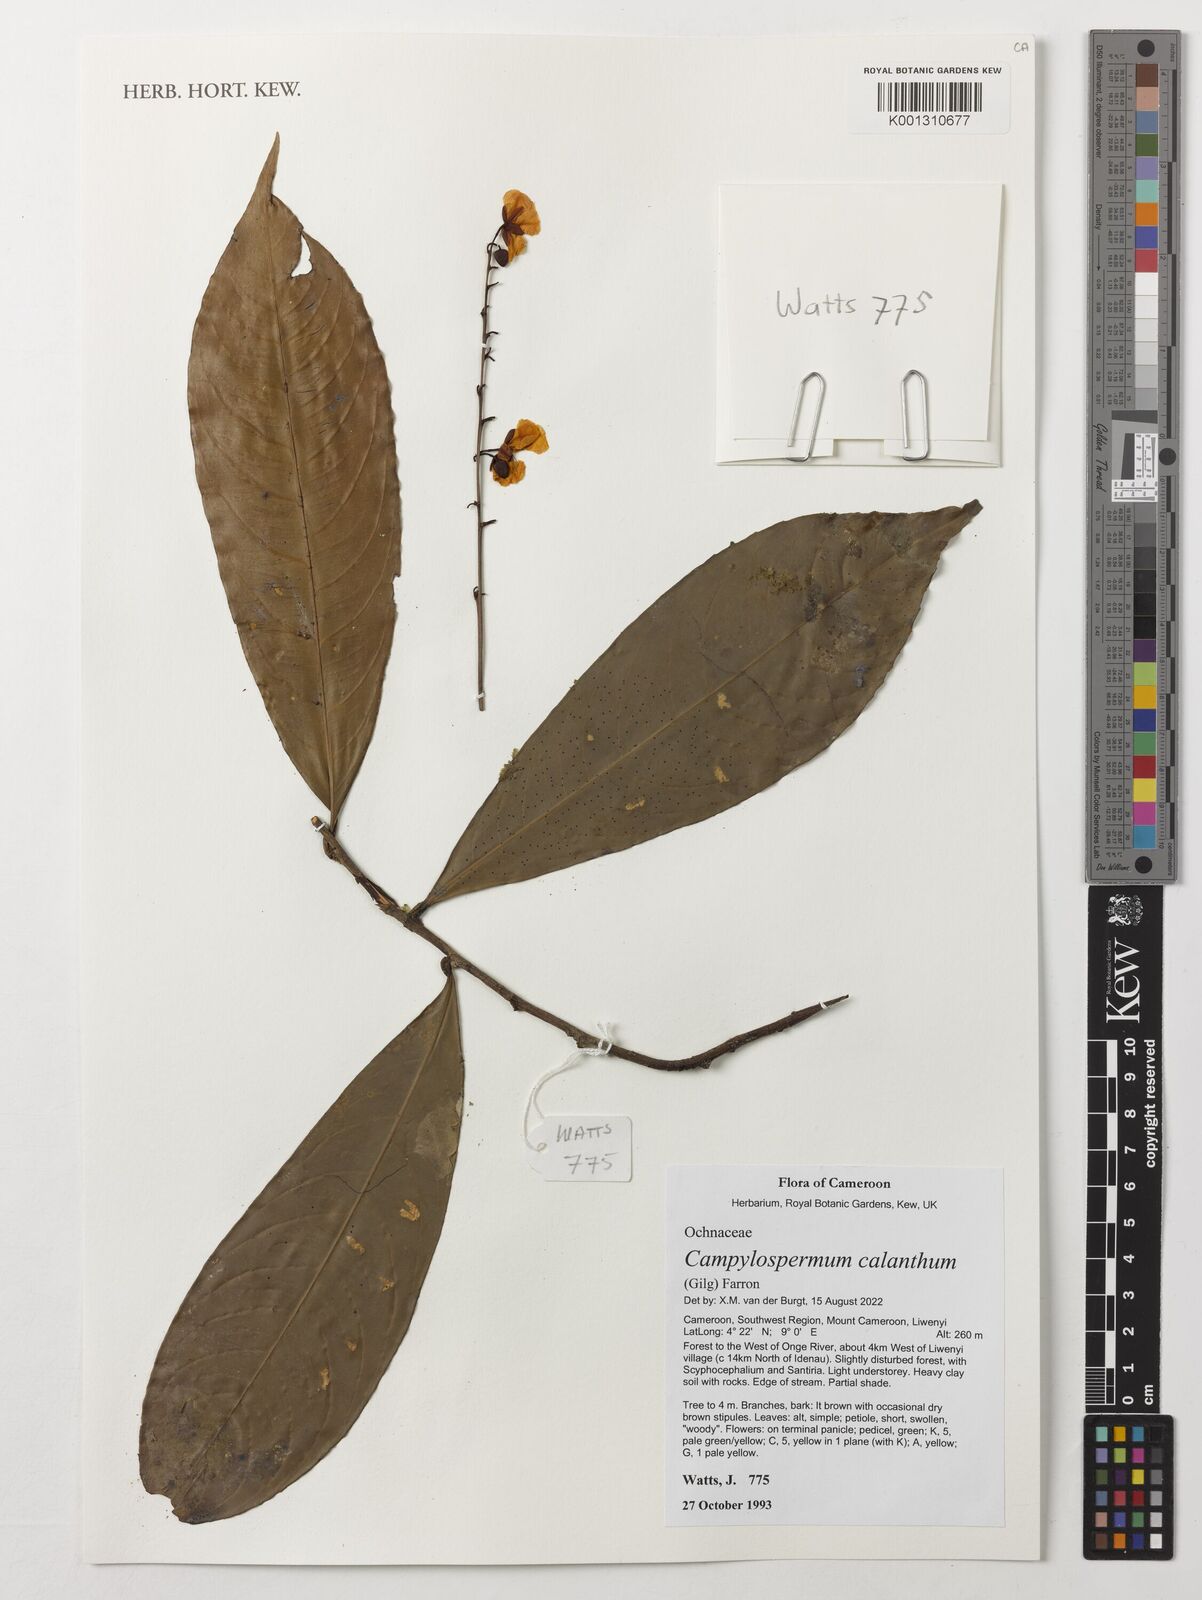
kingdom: Plantae
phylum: Tracheophyta
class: Magnoliopsida
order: Malpighiales
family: Ochnaceae
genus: Campylospermum
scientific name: Campylospermum calanthum
